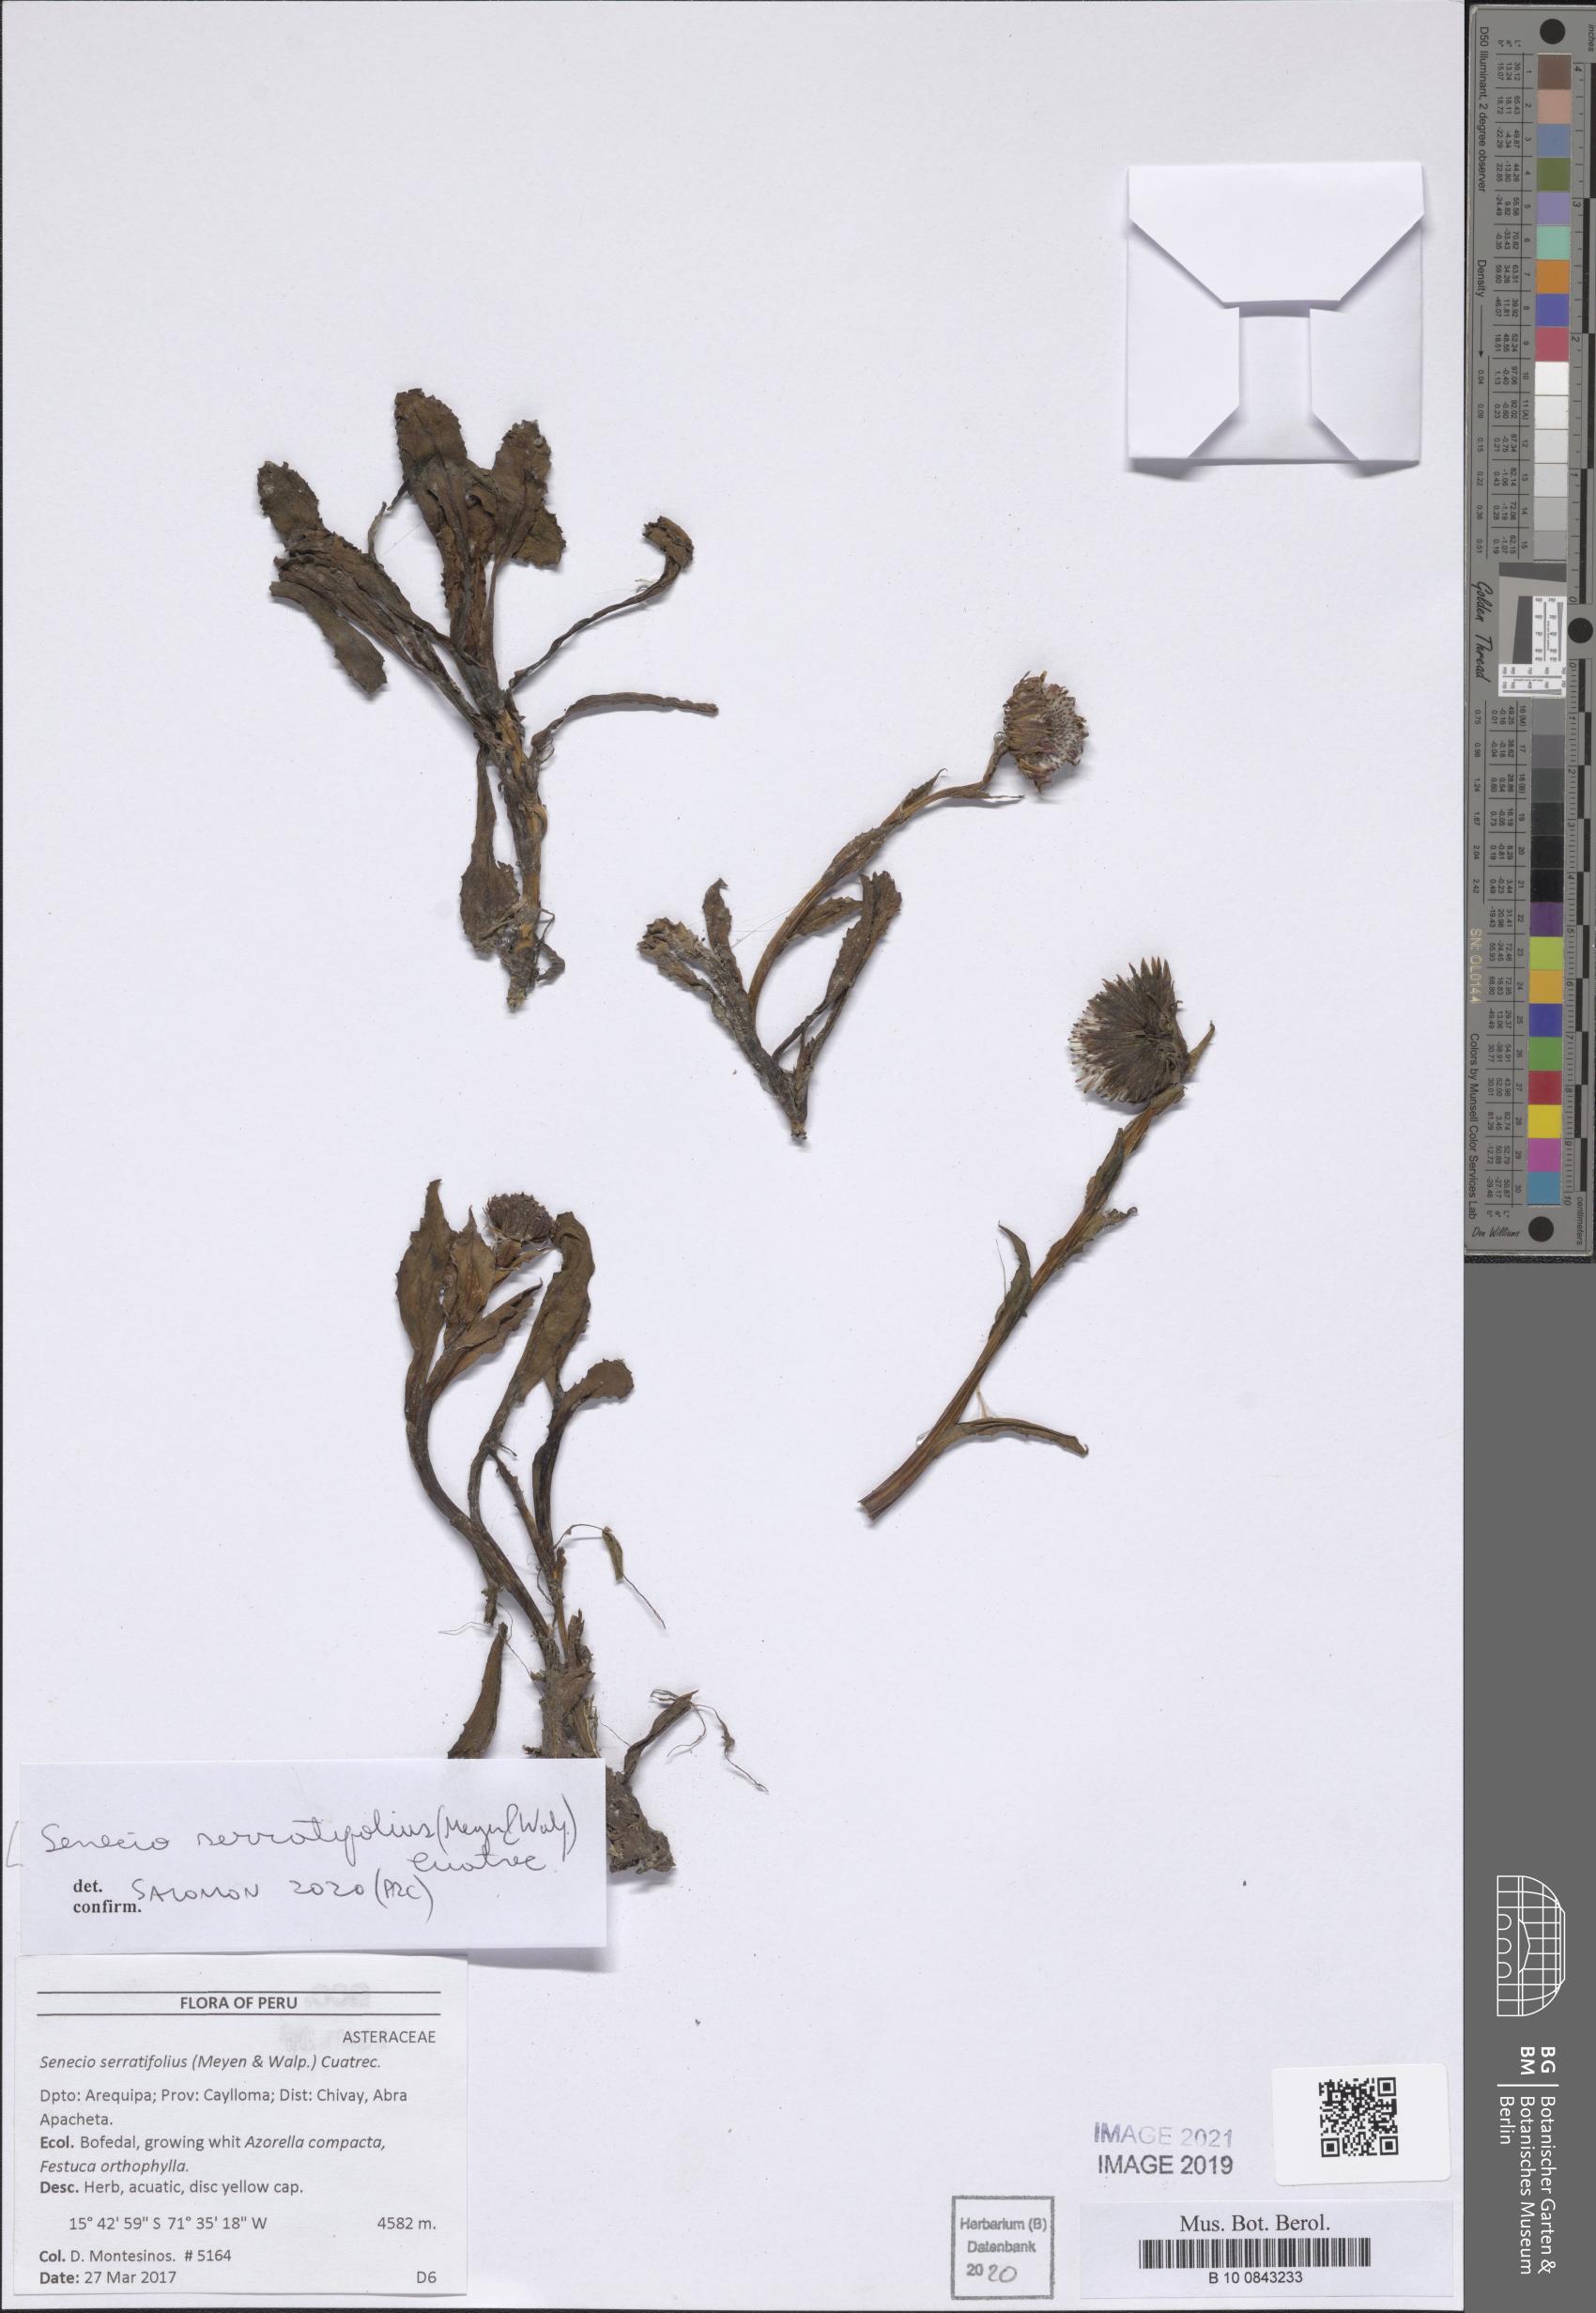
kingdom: Plantae
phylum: Tracheophyta
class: Magnoliopsida
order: Asterales
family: Asteraceae
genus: Senecio
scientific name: Senecio serratifolius
